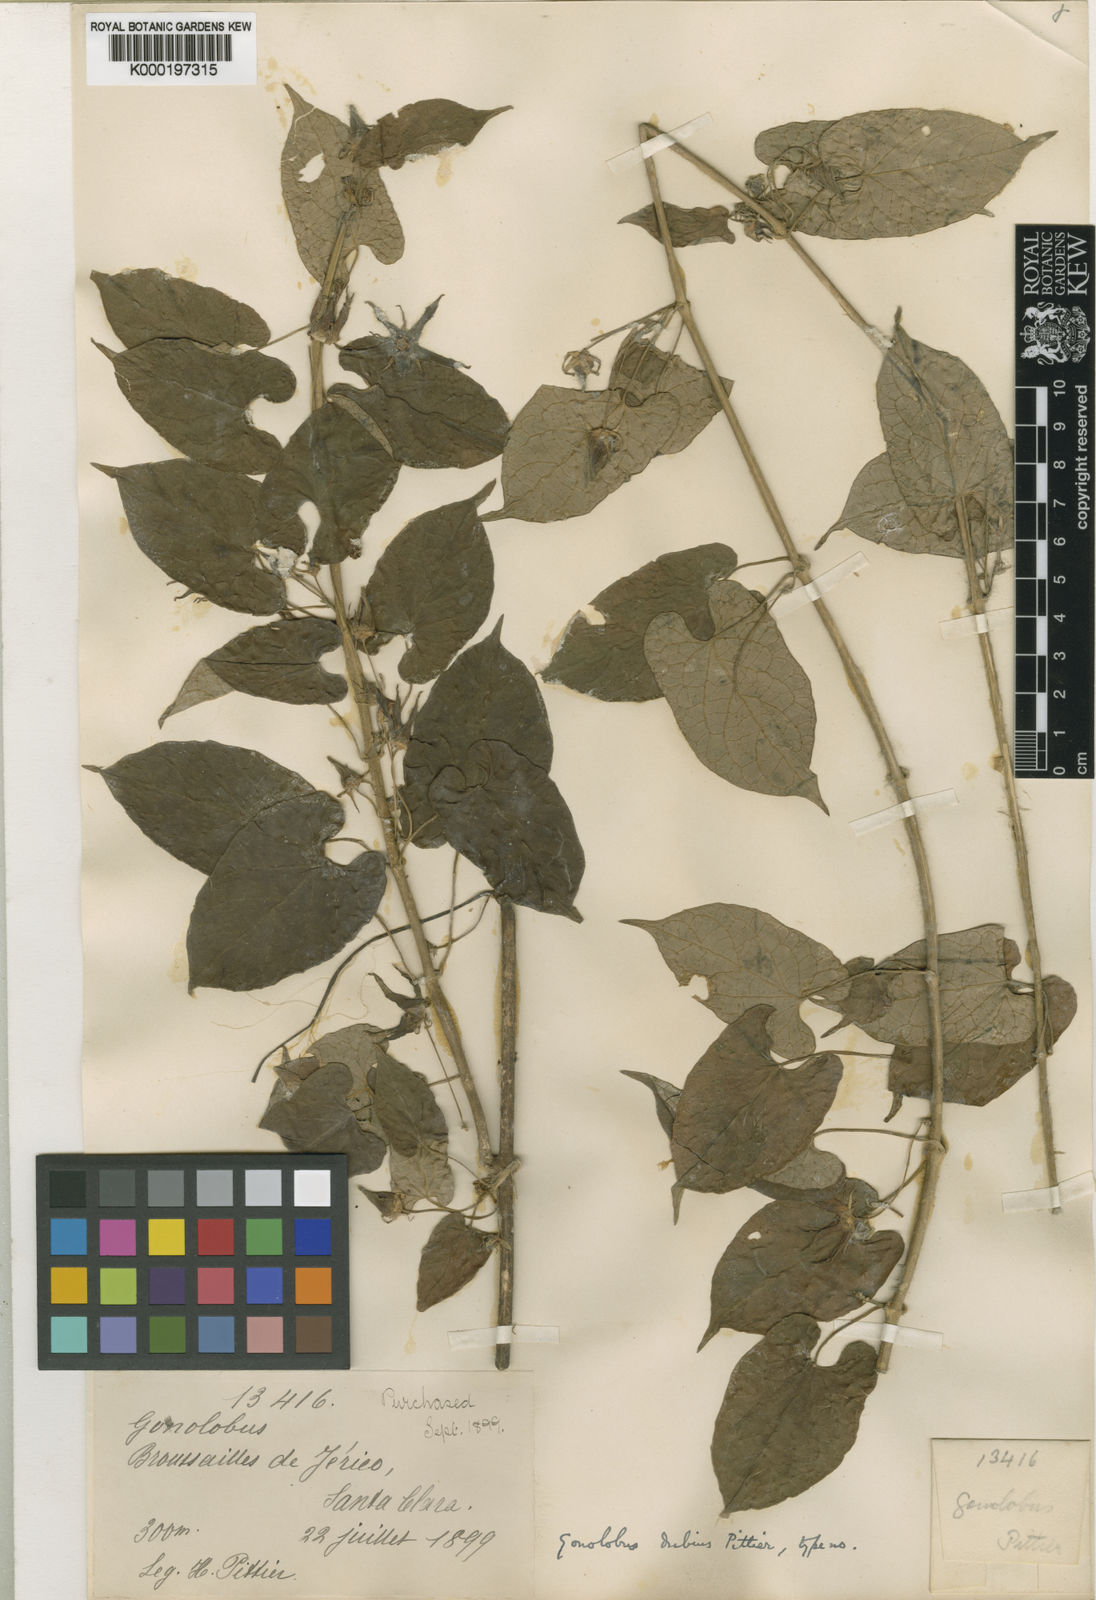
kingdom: Plantae
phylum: Tracheophyta
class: Magnoliopsida
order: Gentianales
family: Apocynaceae
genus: Gonolobus
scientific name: Gonolobus albomarginatus
